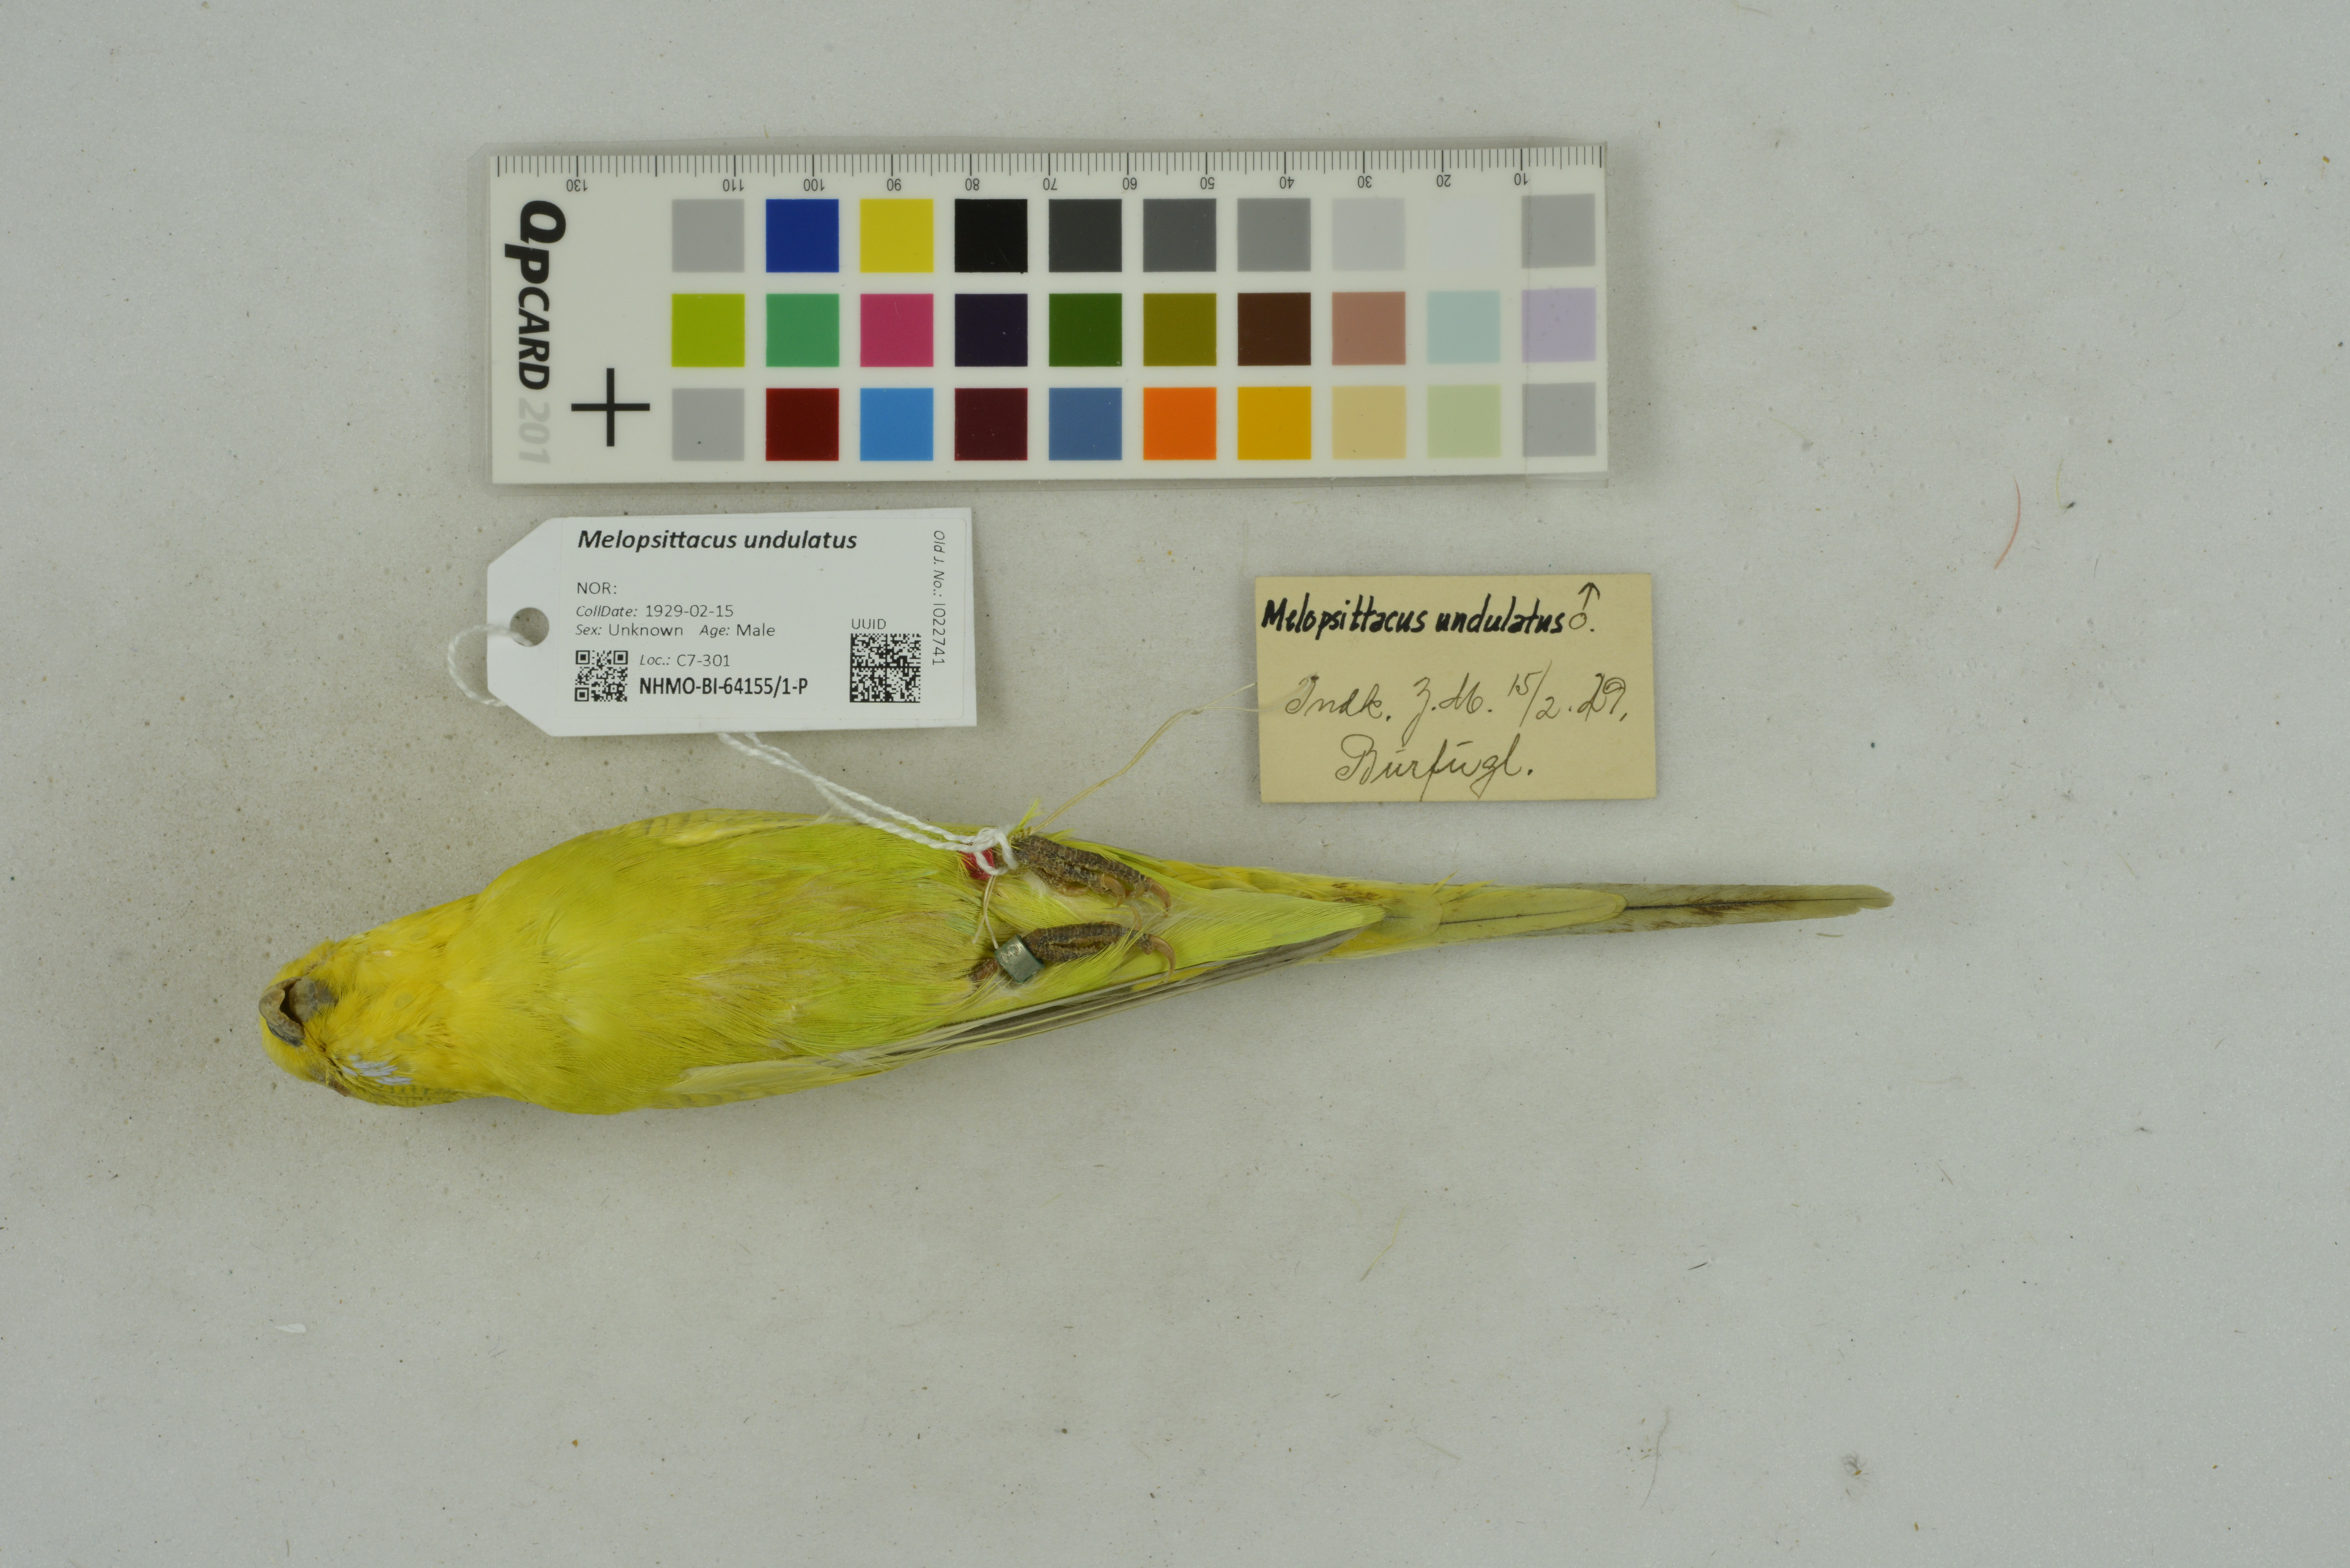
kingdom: Animalia
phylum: Chordata
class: Aves
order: Psittaciformes
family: Psittacidae
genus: Melopsittacus
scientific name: Melopsittacus undulatus
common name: Budgerigar
